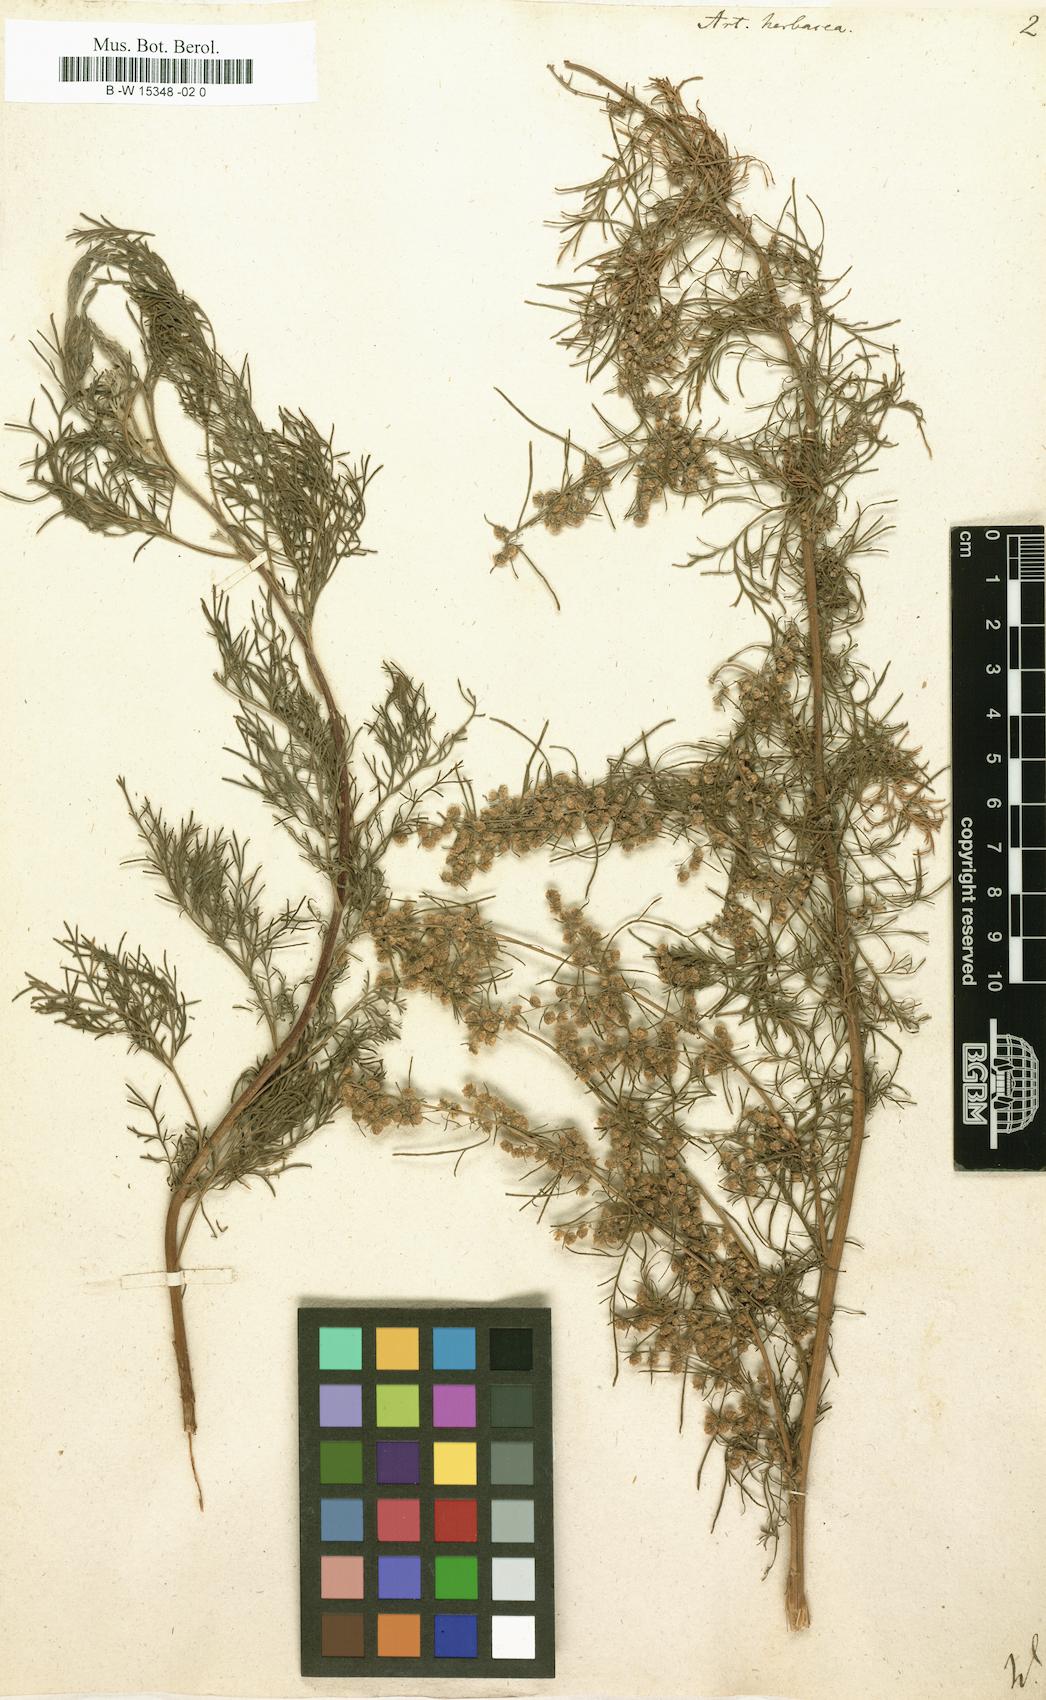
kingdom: Plantae
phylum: Tracheophyta
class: Magnoliopsida
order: Asterales
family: Asteraceae
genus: Artemisia
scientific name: Artemisia abrotanum
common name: Southernwood
